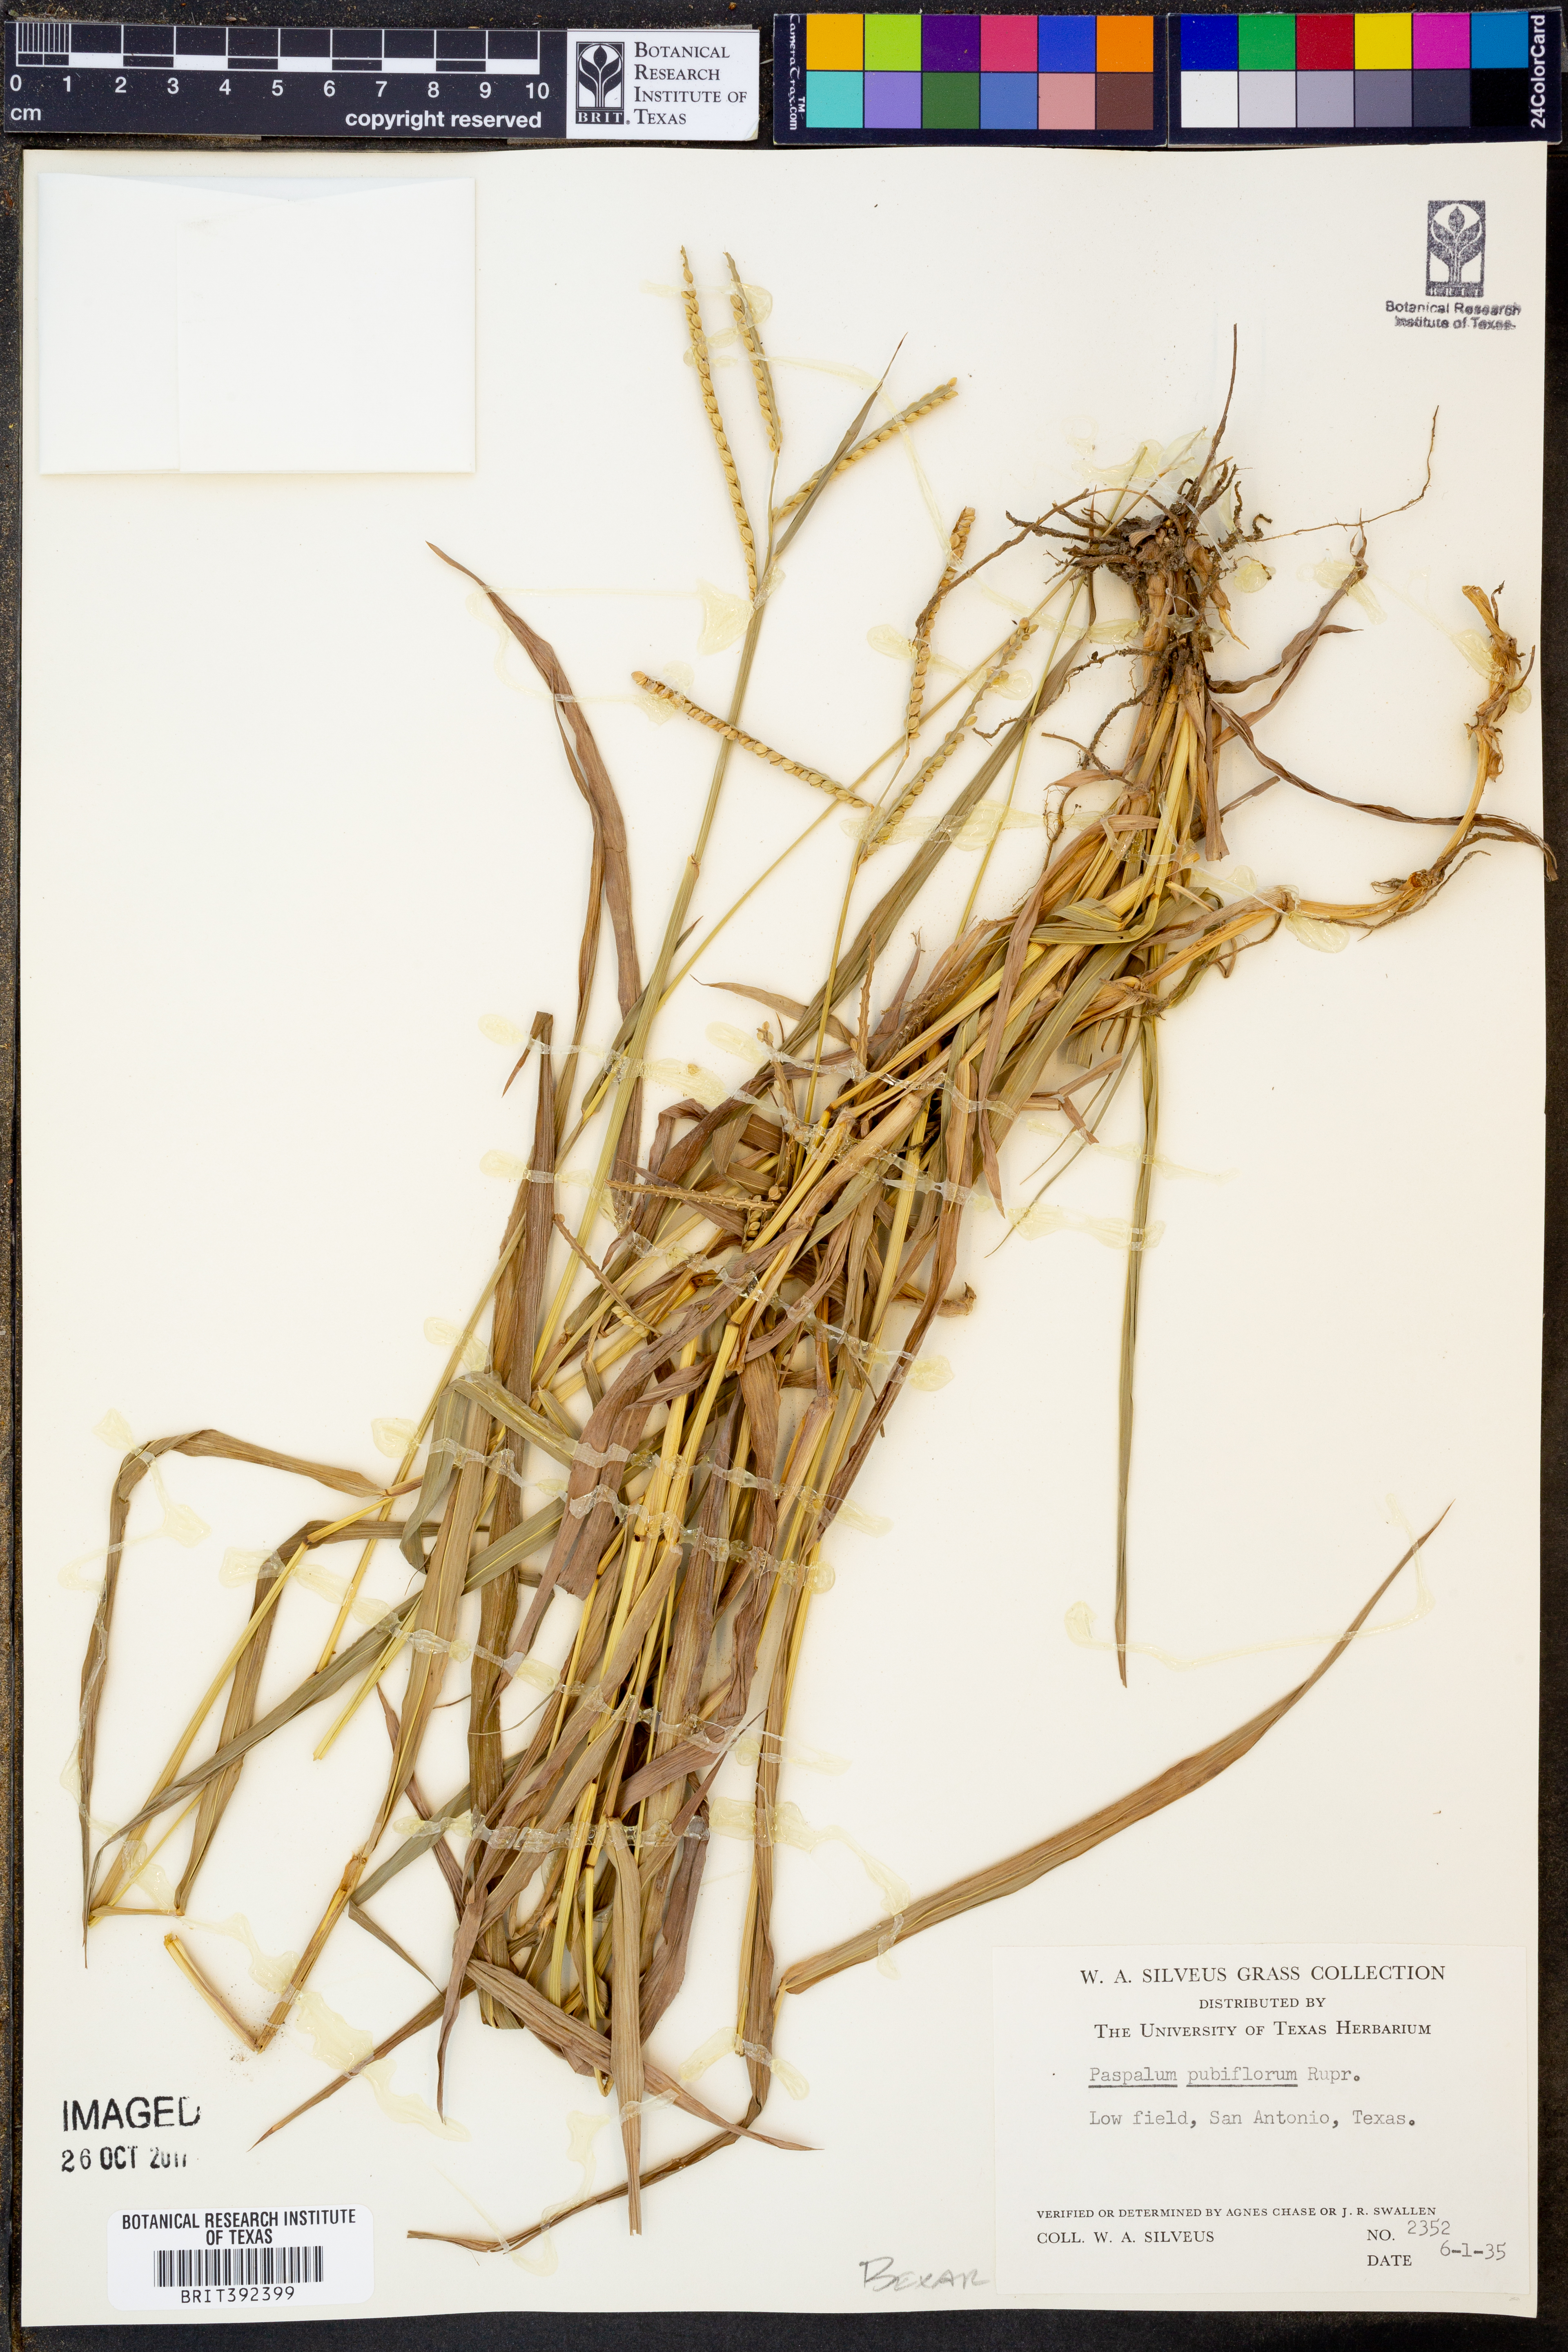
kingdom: Plantae
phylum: Tracheophyta
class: Liliopsida
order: Poales
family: Poaceae
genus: Paspalum
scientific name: Paspalum pubiflorum
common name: Hairy-seed paspalum
